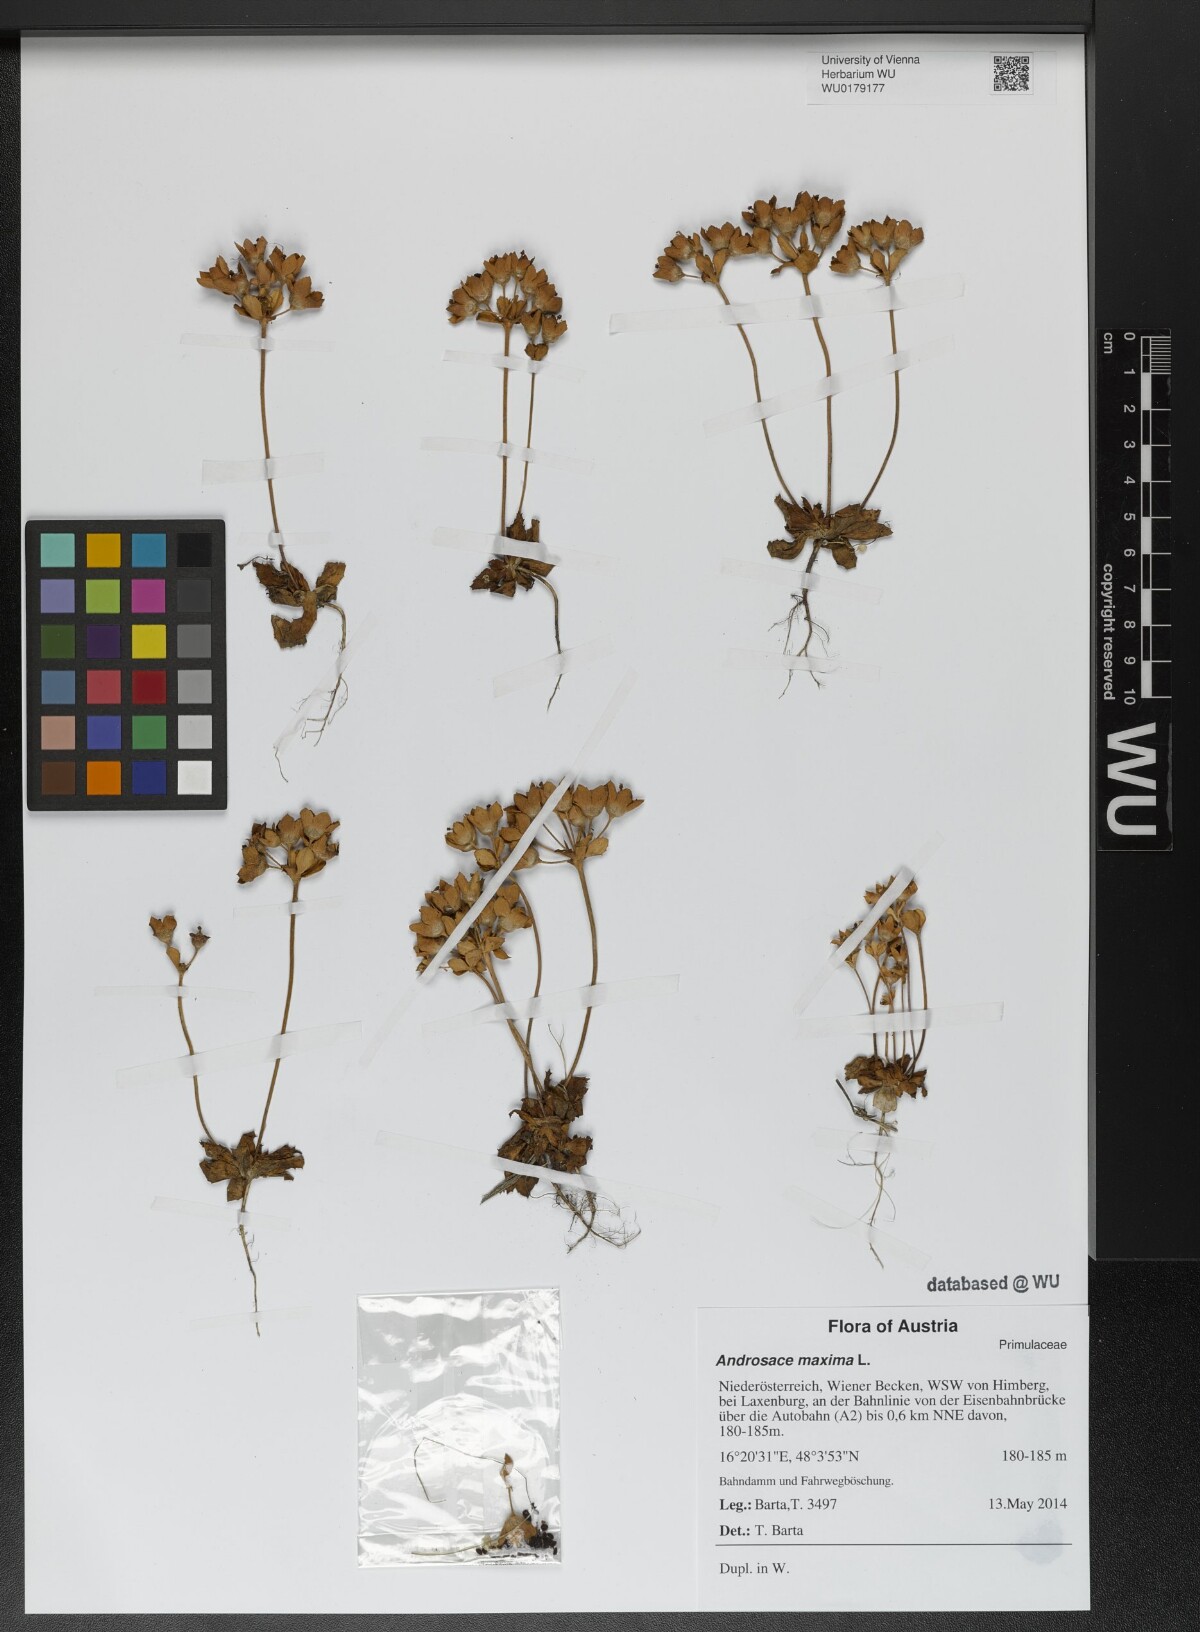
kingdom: Plantae
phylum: Tracheophyta
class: Magnoliopsida
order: Ericales
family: Primulaceae
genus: Androsace
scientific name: Androsace maxima
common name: Annual androsace
